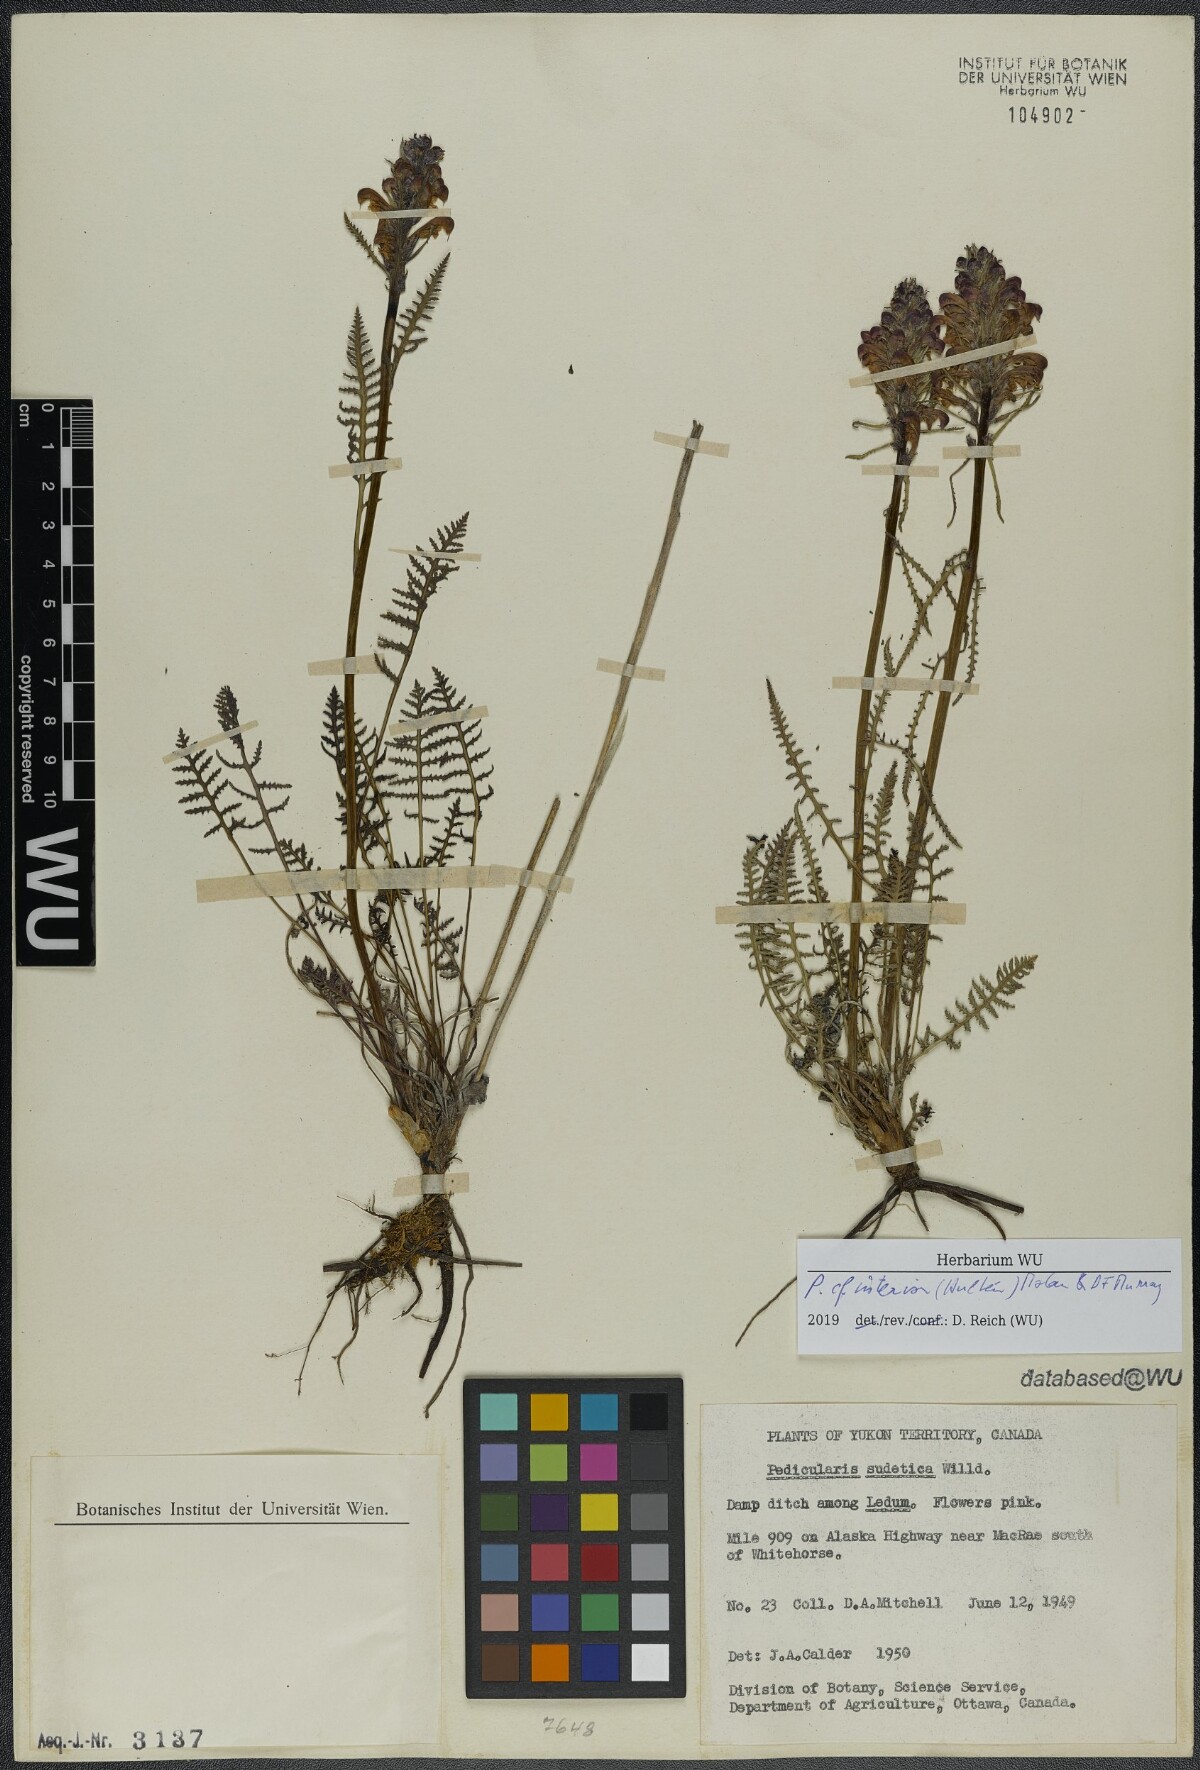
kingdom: Plantae
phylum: Tracheophyta
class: Magnoliopsida
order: Lamiales
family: Orobanchaceae
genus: Pedicularis
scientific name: Pedicularis interior
